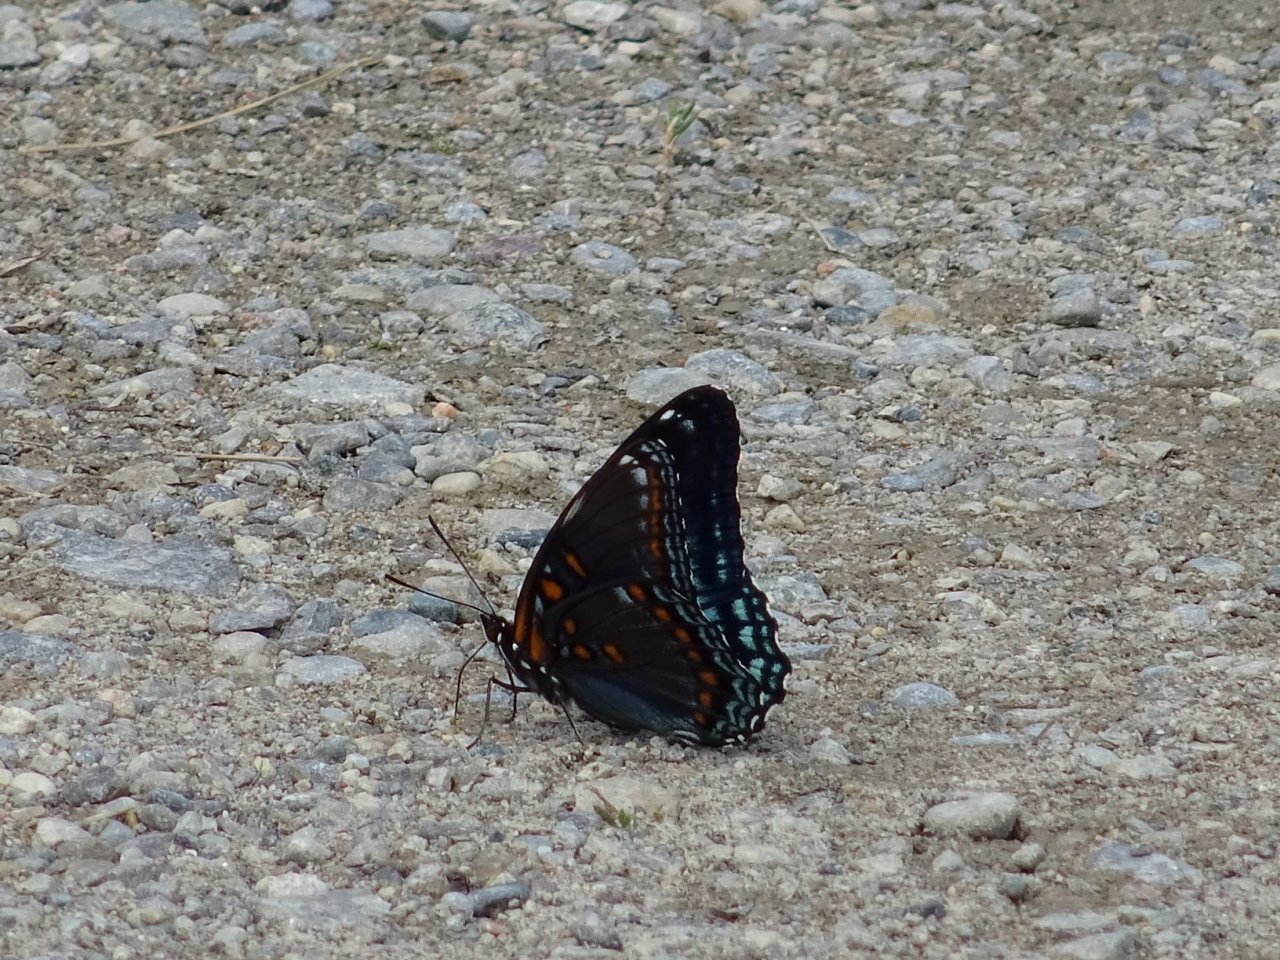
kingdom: Animalia
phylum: Arthropoda
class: Insecta
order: Lepidoptera
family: Nymphalidae
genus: Limenitis
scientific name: Limenitis astyanax
